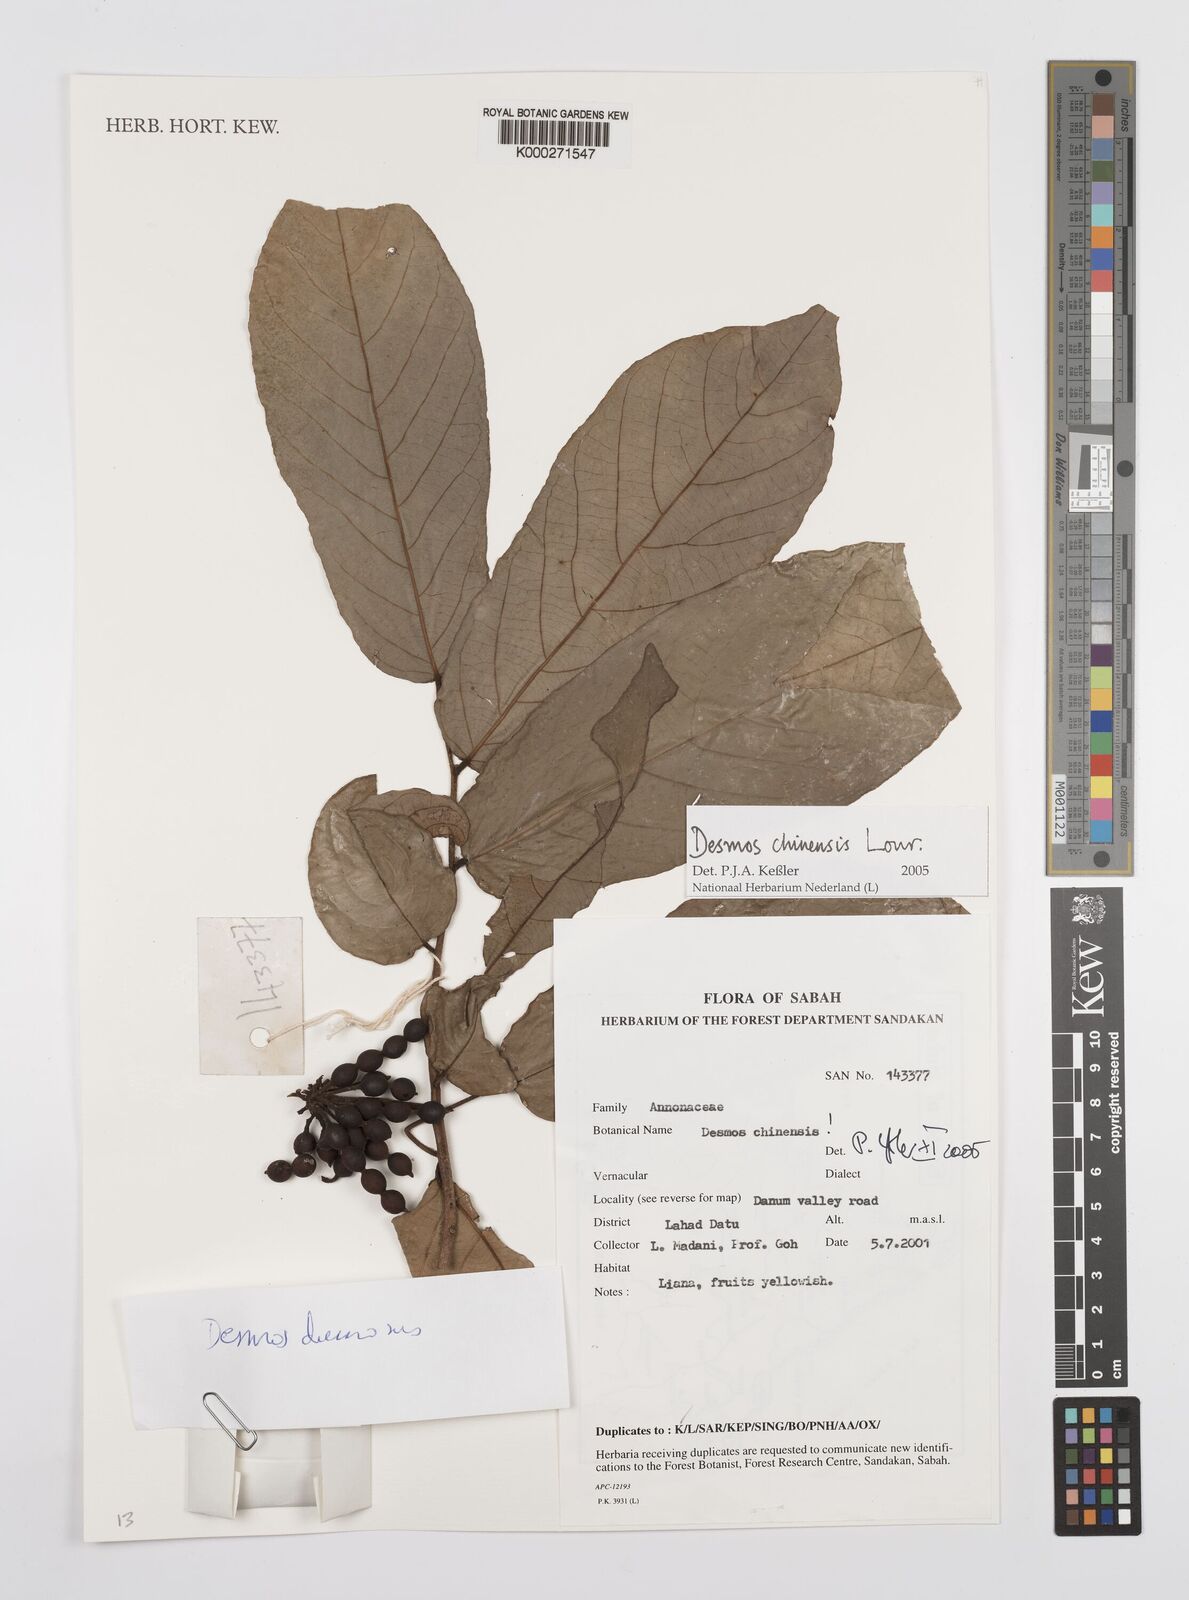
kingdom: Plantae
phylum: Tracheophyta
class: Magnoliopsida
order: Magnoliales
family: Annonaceae
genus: Desmos
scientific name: Desmos chinensis
